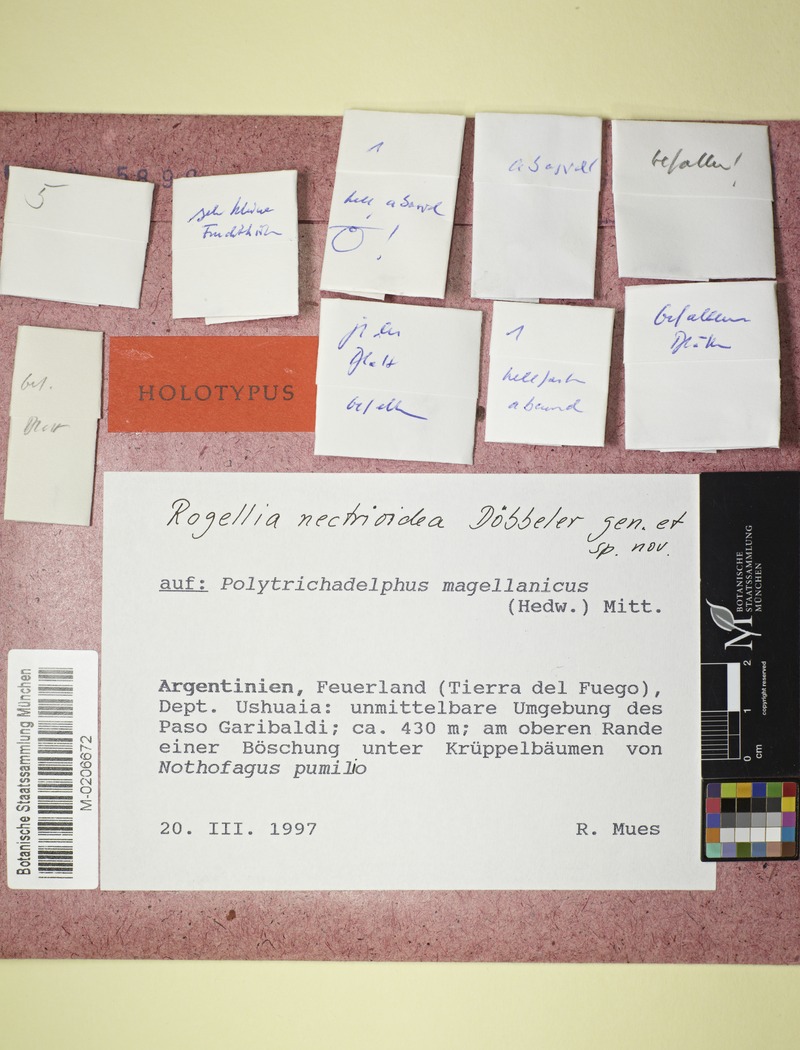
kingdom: Fungi
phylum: Ascomycota
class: Lecanoromycetes
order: Ostropales
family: Odontotremataceae
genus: Rogellia
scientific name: Rogellia nectrioidea
